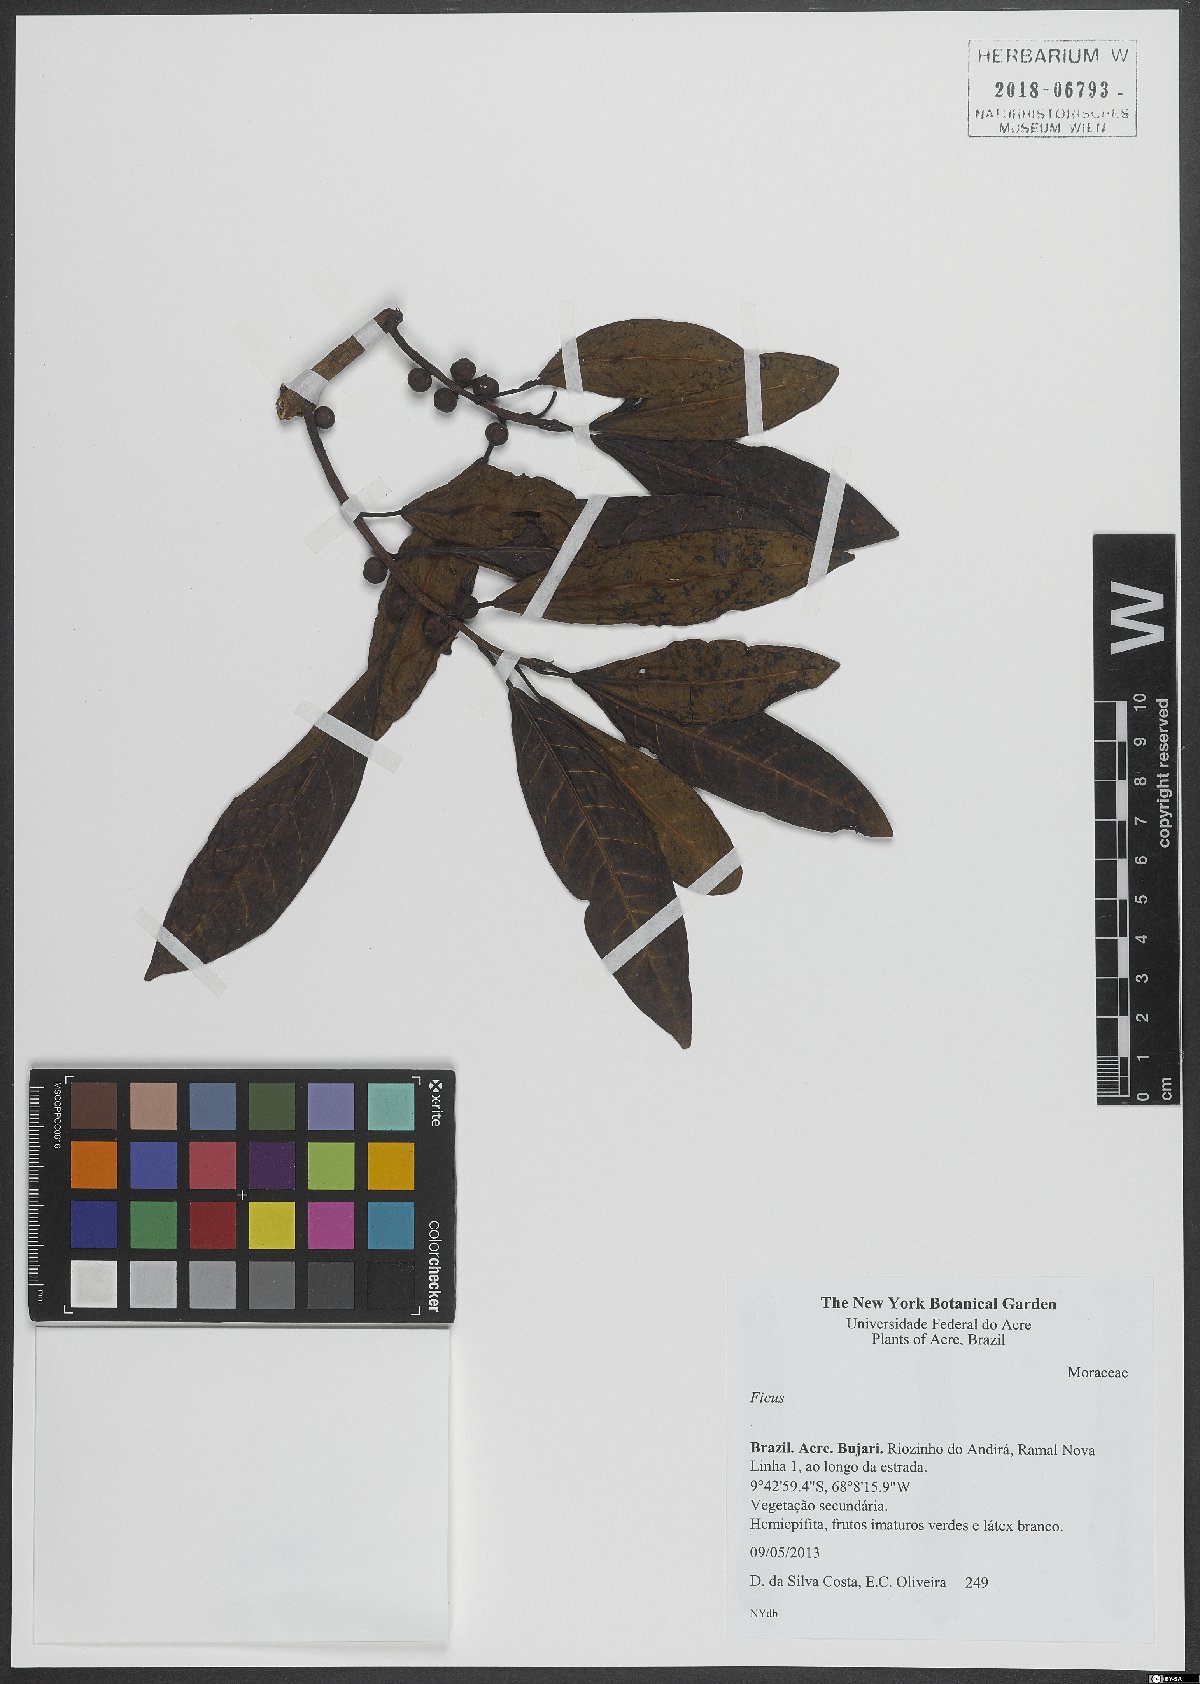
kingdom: Plantae
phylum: Tracheophyta
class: Magnoliopsida
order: Rosales
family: Moraceae
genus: Ficus
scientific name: Ficus
